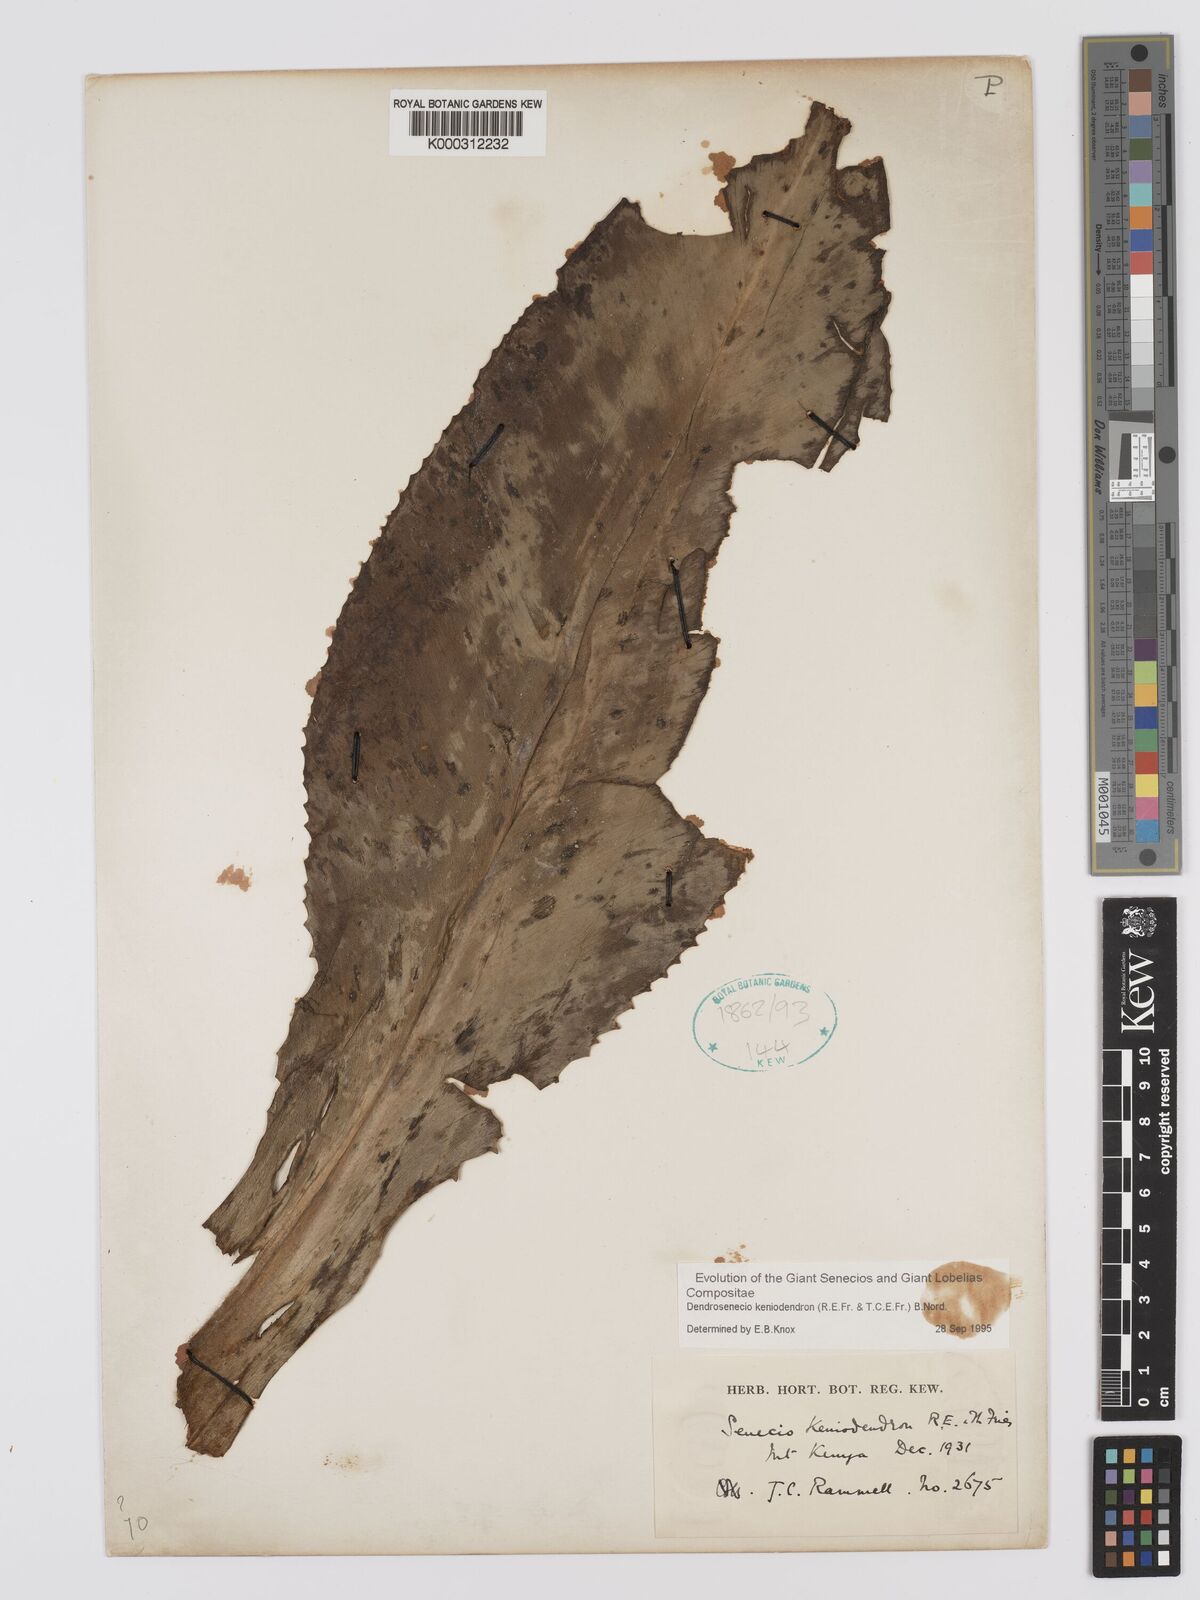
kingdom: Plantae
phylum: Tracheophyta
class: Magnoliopsida
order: Asterales
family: Asteraceae
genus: Dendrosenecio
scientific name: Dendrosenecio keniodendron
